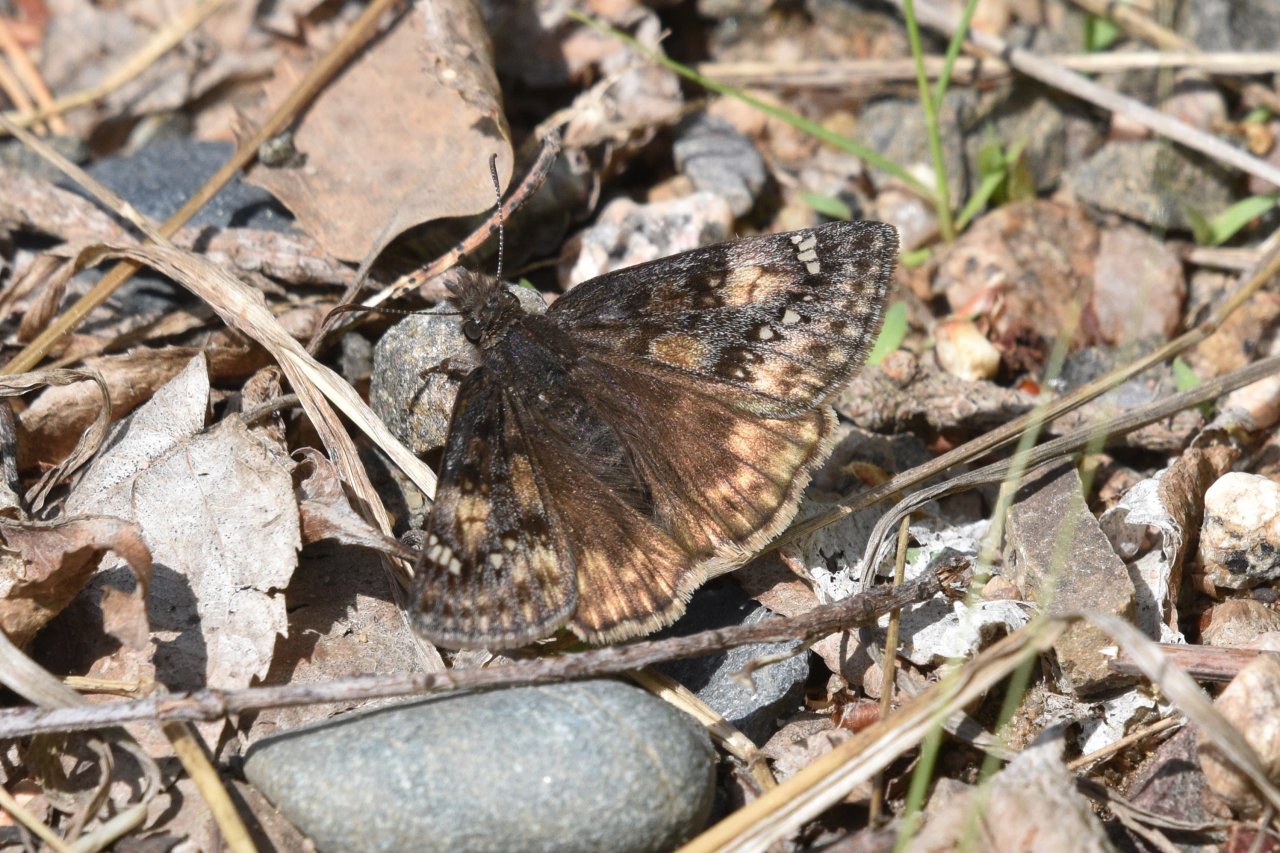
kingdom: Animalia
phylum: Arthropoda
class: Insecta
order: Lepidoptera
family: Hesperiidae
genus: Gesta
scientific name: Gesta
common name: Juvenal's Duskywing
